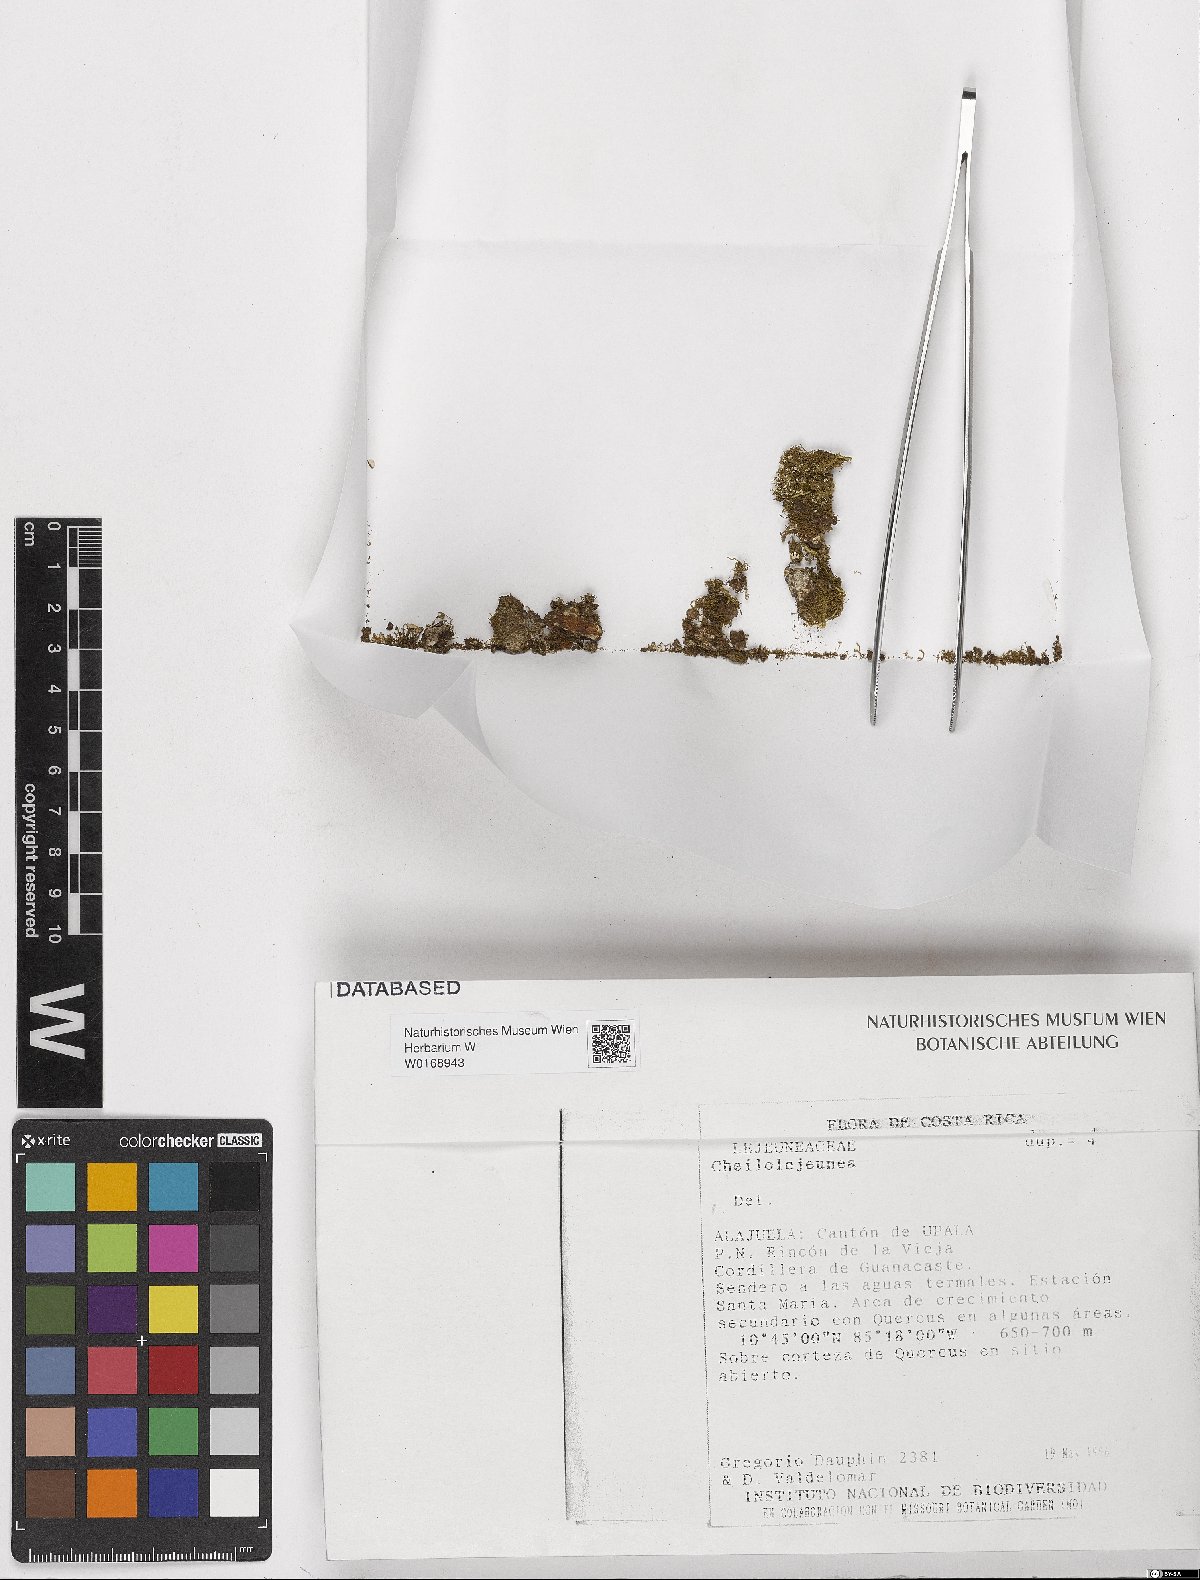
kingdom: Plantae
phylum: Marchantiophyta
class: Jungermanniopsida
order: Porellales
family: Lejeuneaceae
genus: Cheilolejeunea
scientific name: Cheilolejeunea
